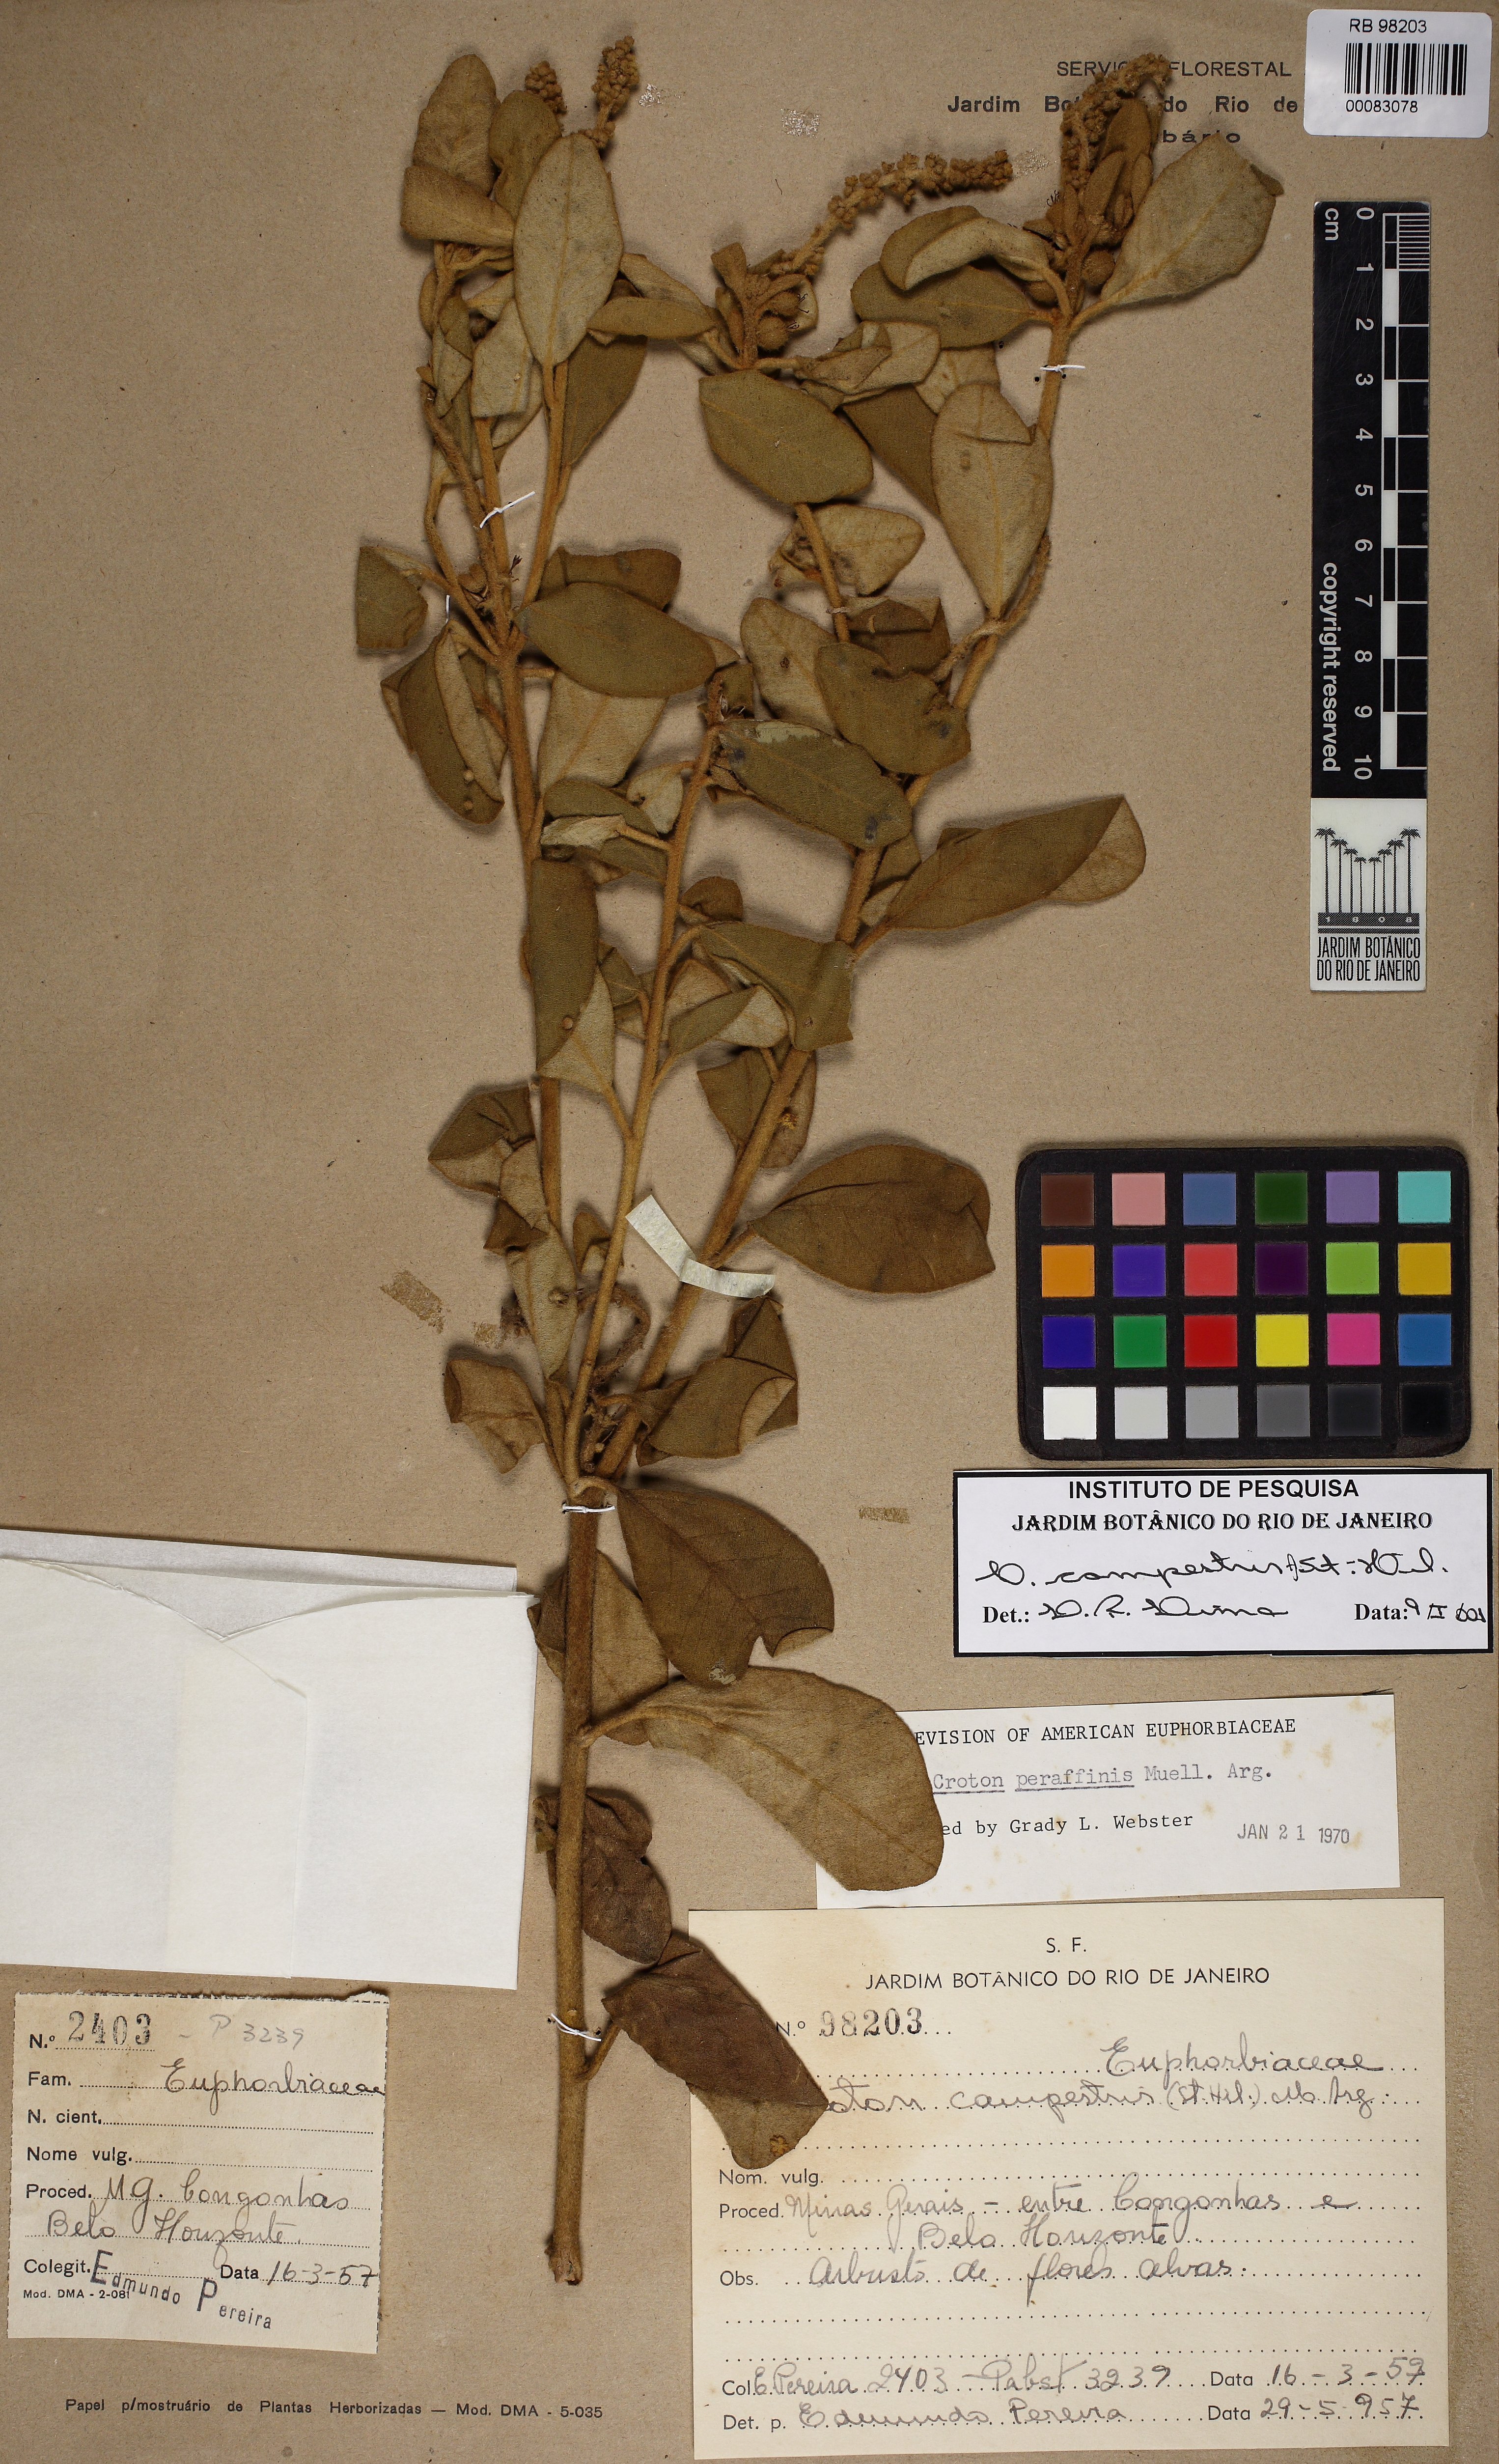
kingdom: Plantae
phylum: Tracheophyta
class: Magnoliopsida
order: Malpighiales
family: Euphorbiaceae
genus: Croton
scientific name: Croton campestris
